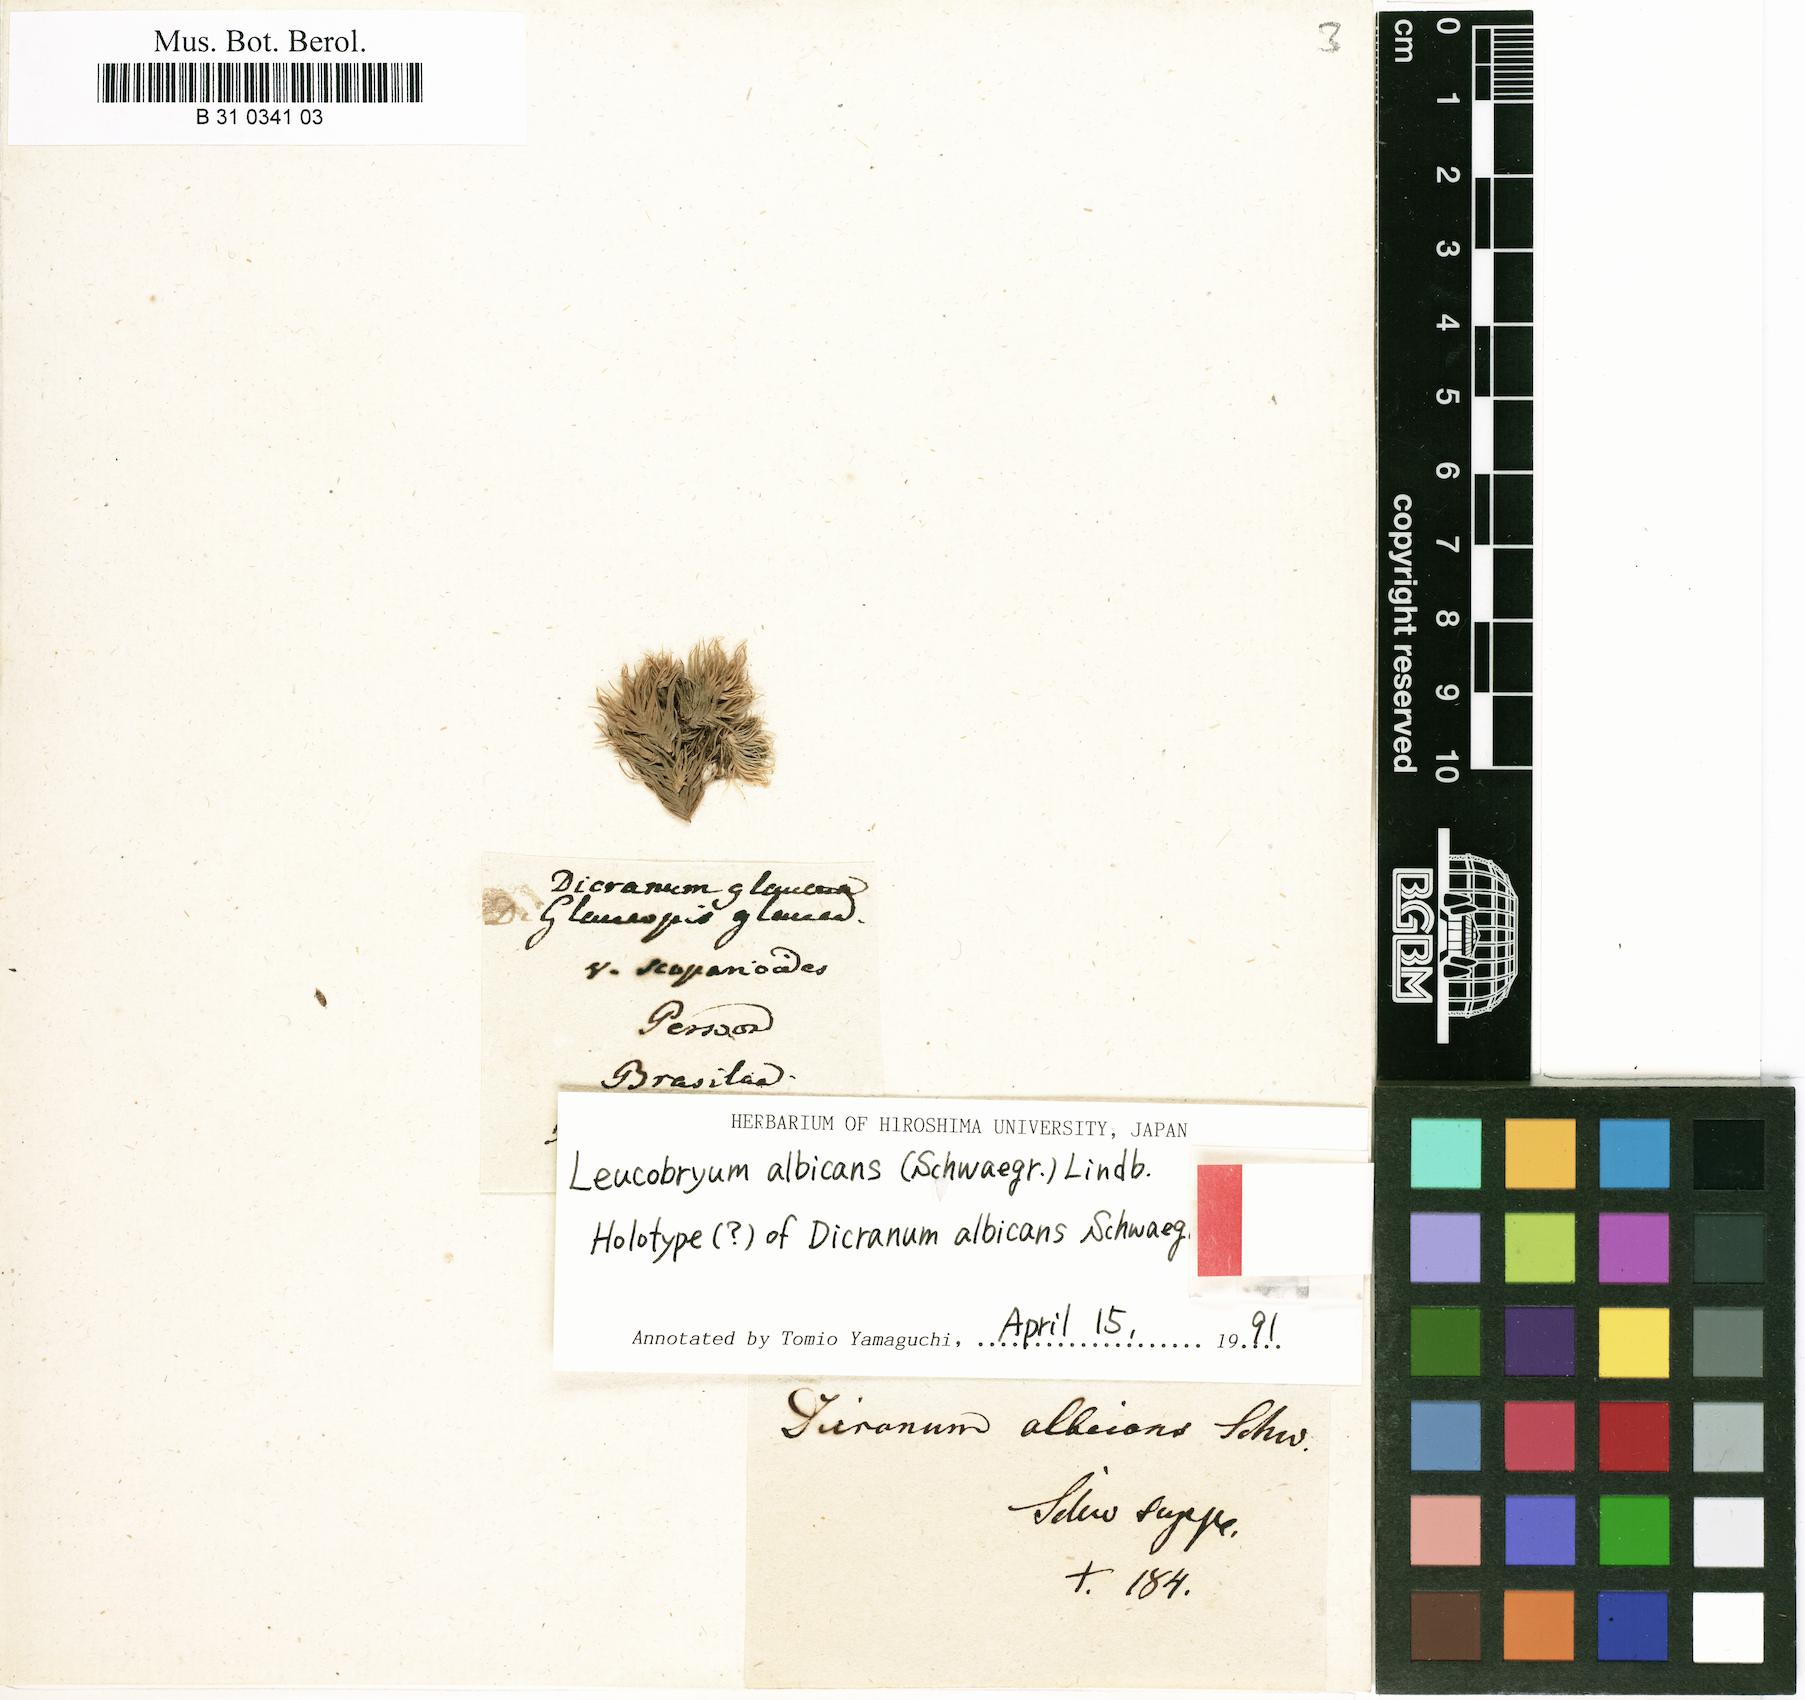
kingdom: Plantae
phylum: Bryophyta
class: Bryopsida
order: Dicranales
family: Leucobryaceae
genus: Leucobryum
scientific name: Leucobryum glaucum
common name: Large white-moss
